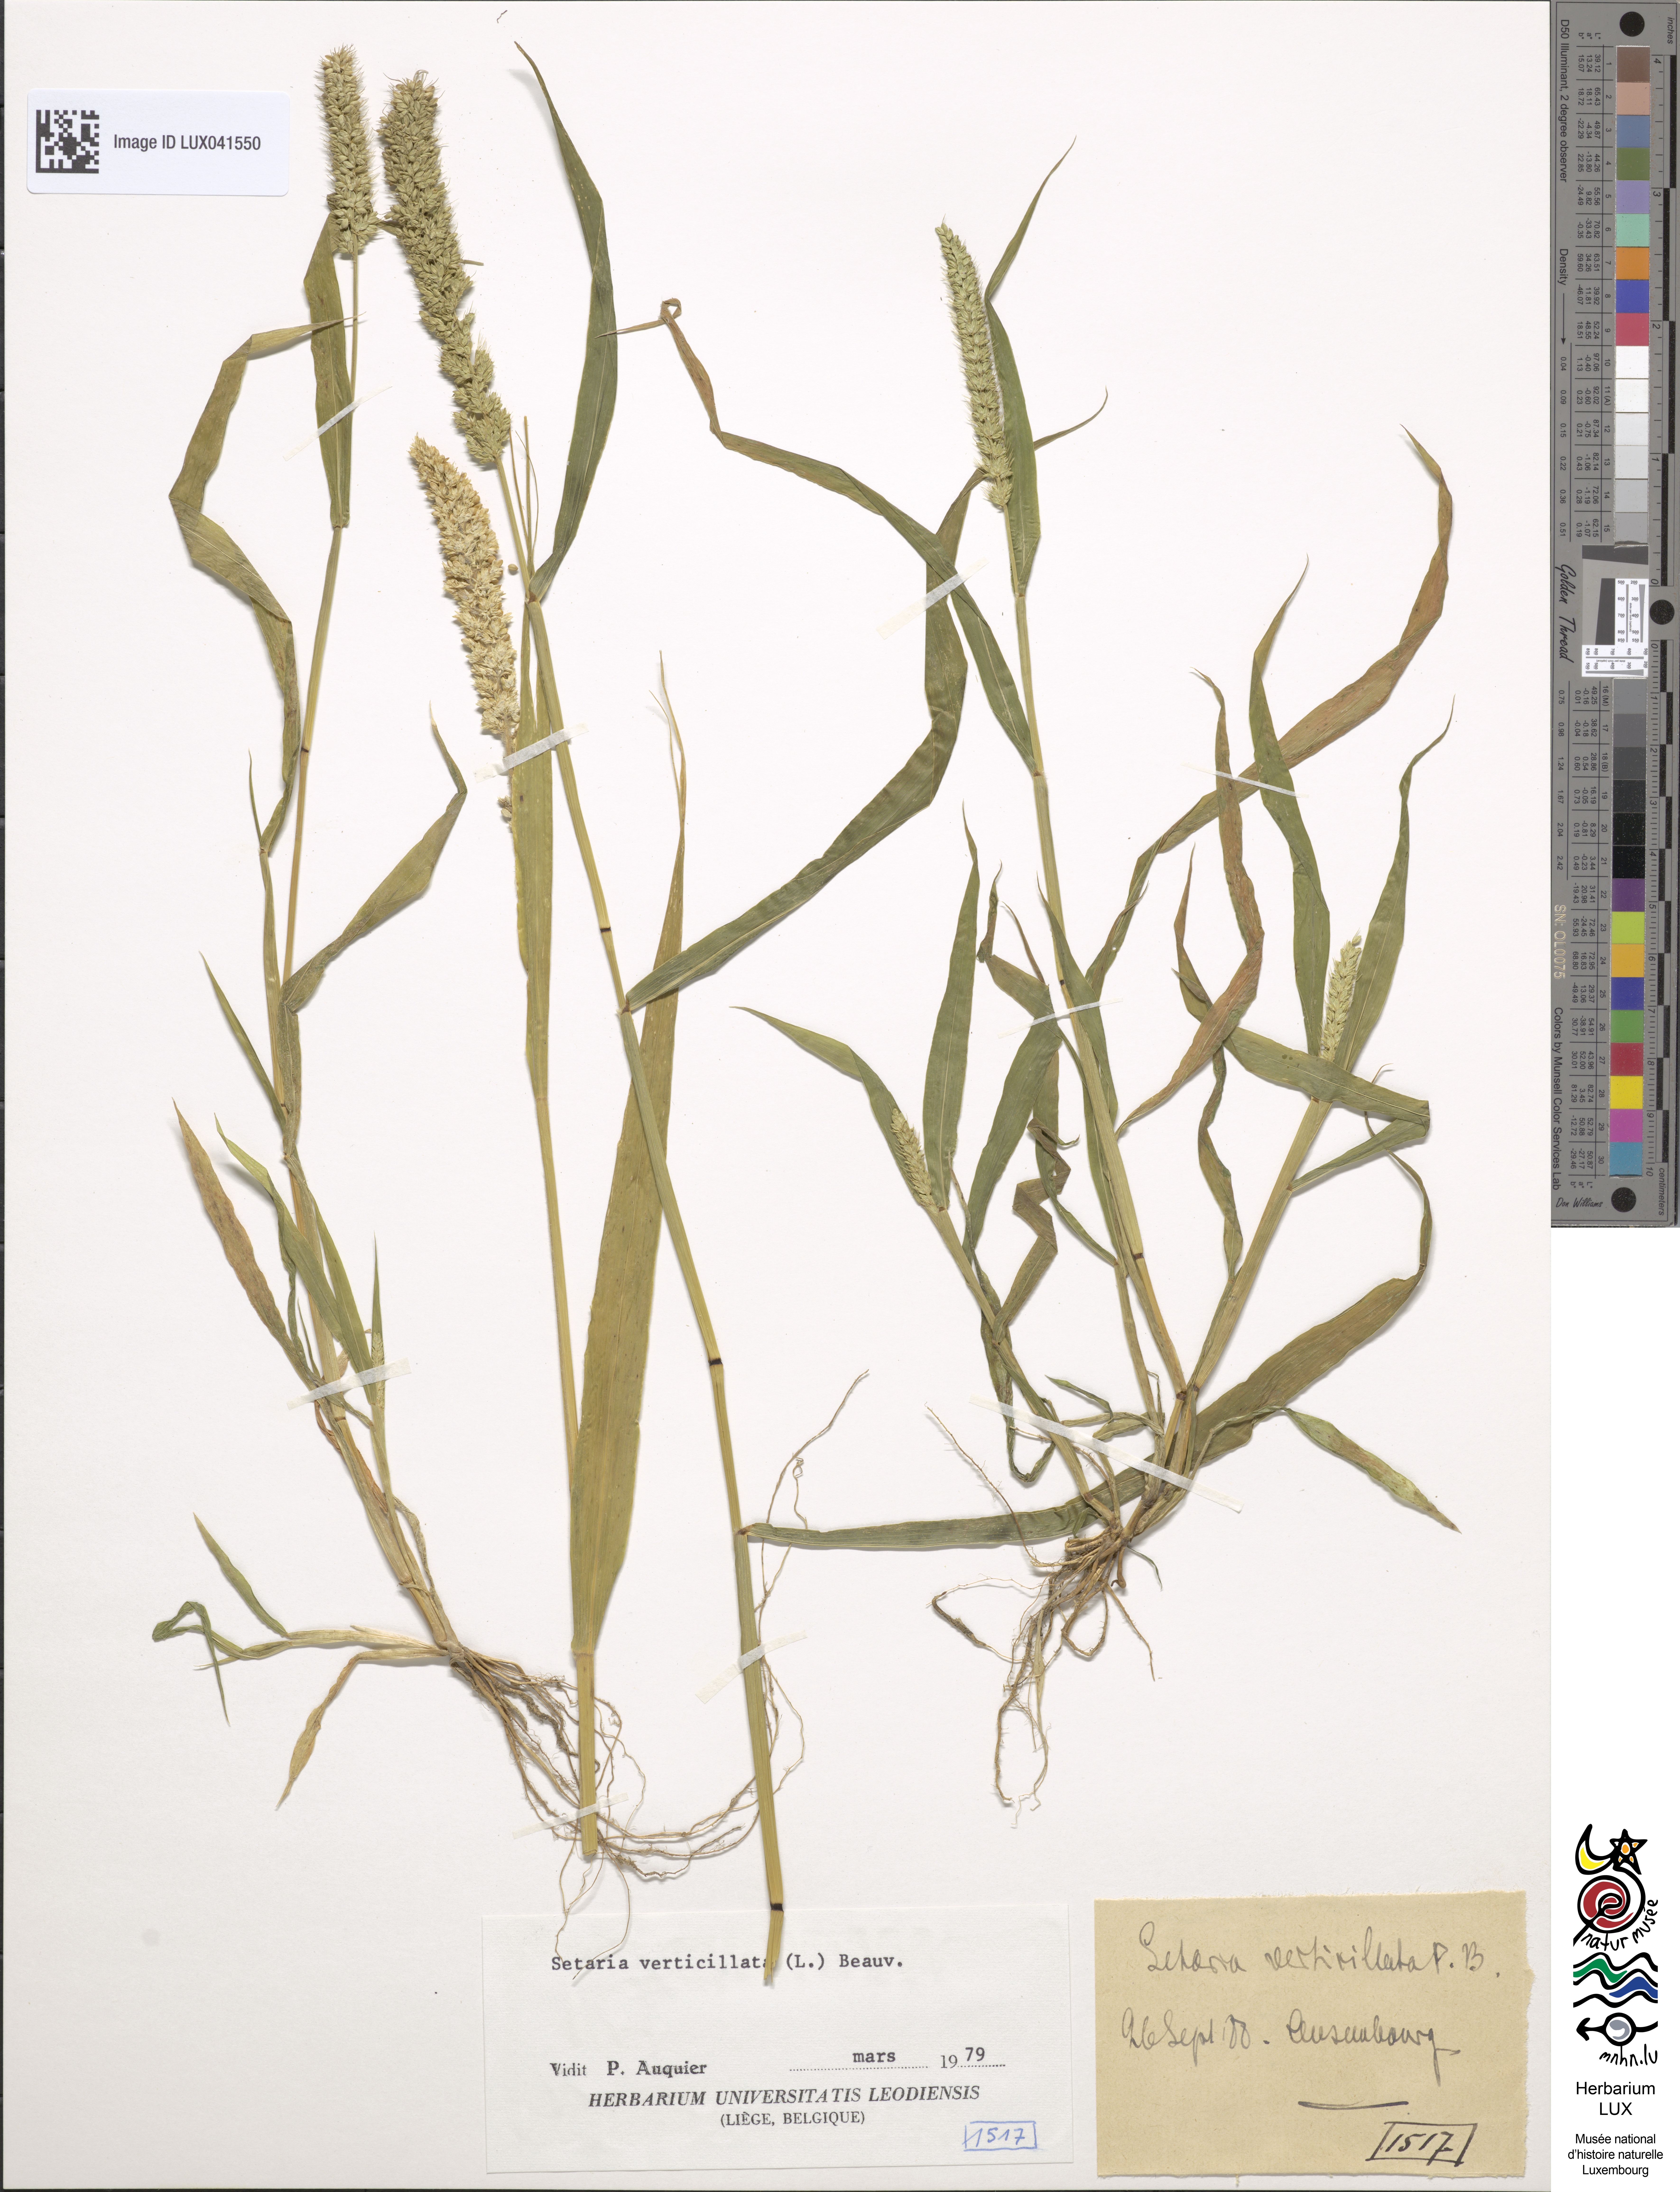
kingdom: Plantae
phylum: Tracheophyta
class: Liliopsida
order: Poales
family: Poaceae
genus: Setaria
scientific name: Setaria verticillata
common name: Hooked bristlegrass
